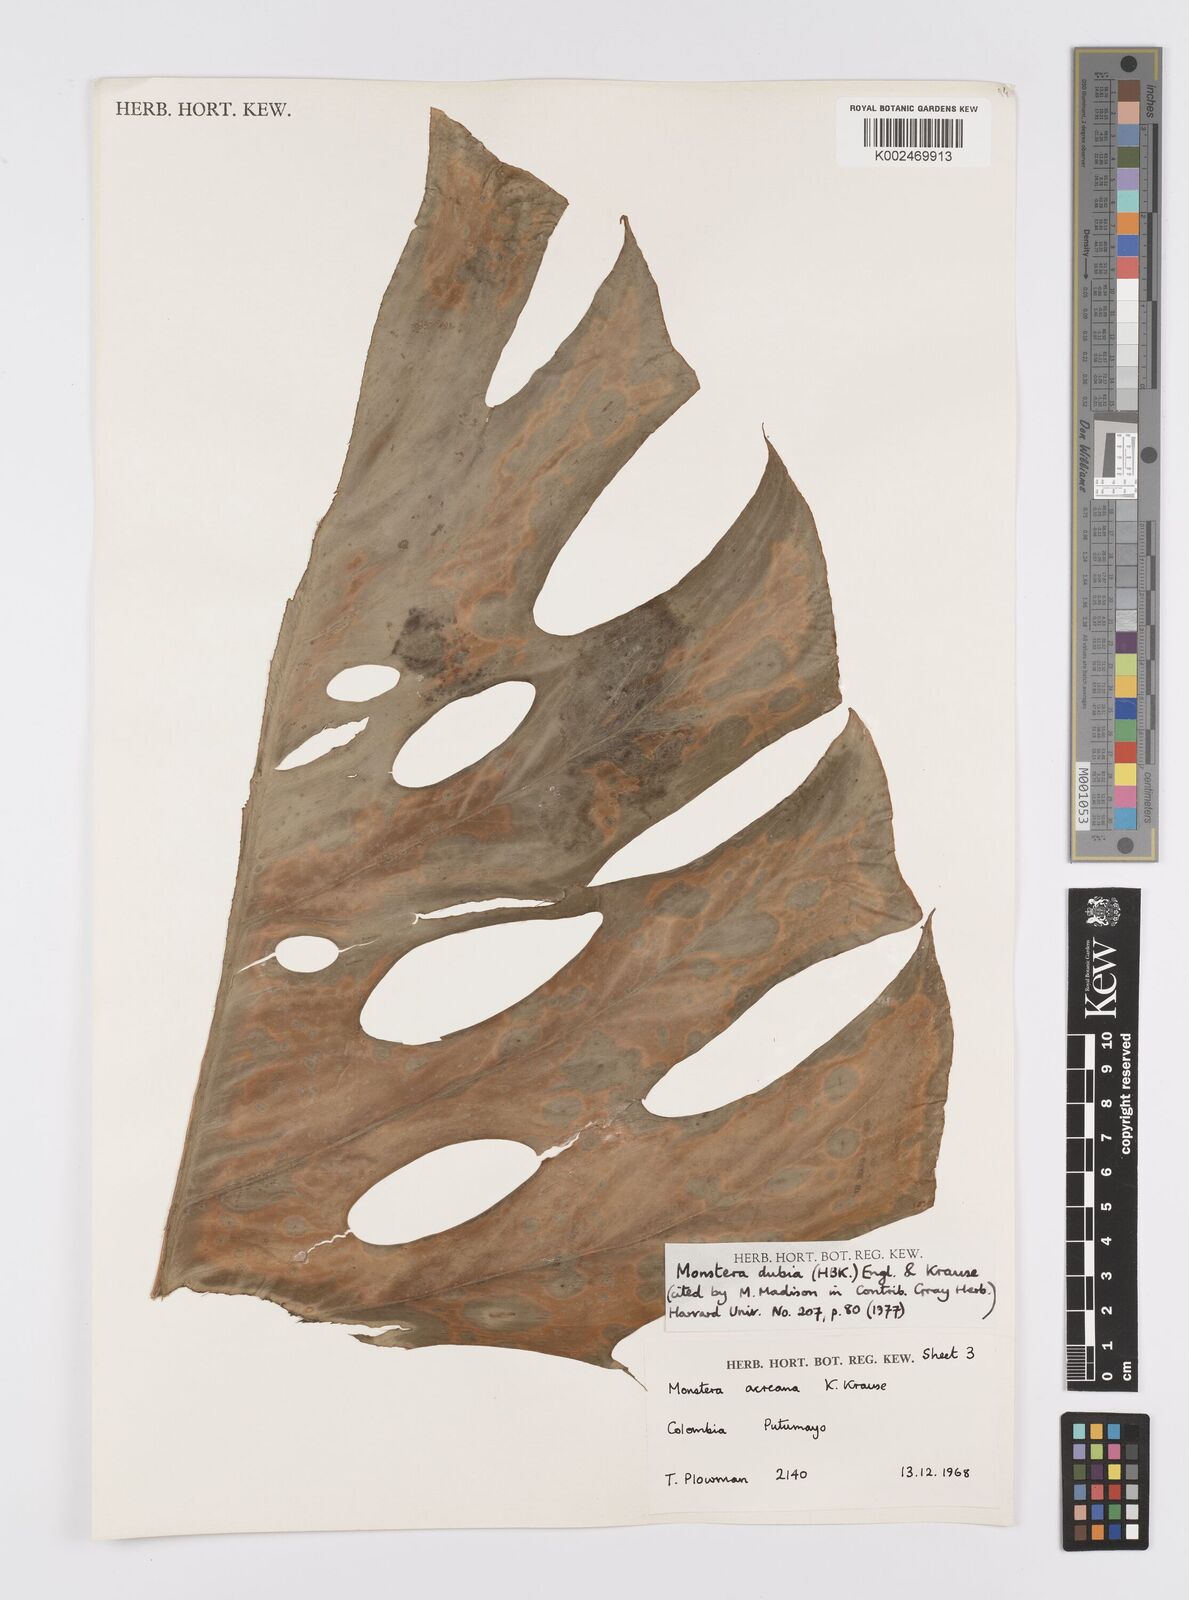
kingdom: Plantae
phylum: Tracheophyta
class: Liliopsida
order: Alismatales
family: Araceae
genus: Monstera
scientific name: Monstera dubia
